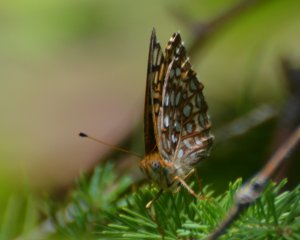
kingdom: Animalia
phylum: Arthropoda
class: Insecta
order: Lepidoptera
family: Nymphalidae
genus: Speyeria
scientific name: Speyeria atlantis
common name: Atlantis Fritillary
